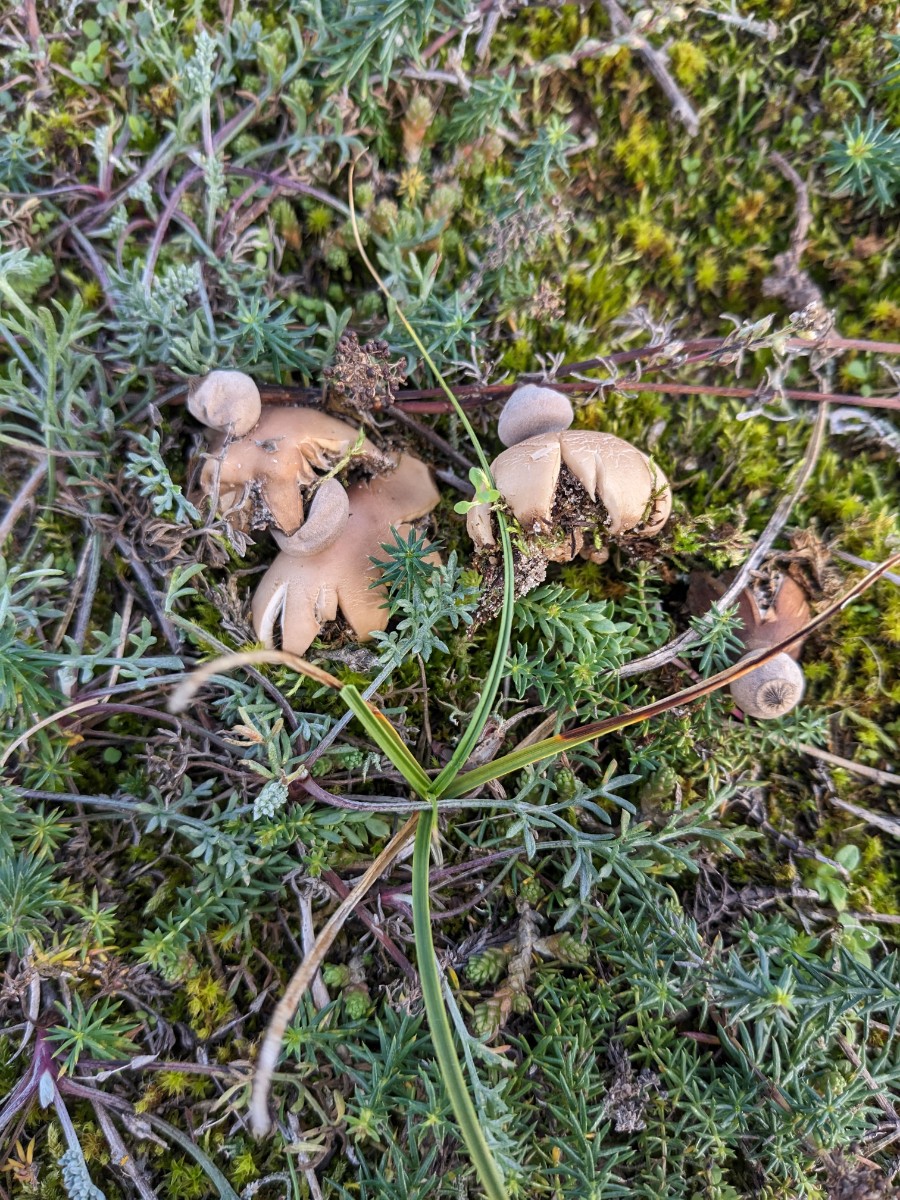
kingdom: Fungi
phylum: Basidiomycota
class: Agaricomycetes
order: Geastrales
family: Geastraceae
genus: Geastrum
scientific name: Geastrum striatum
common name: dværg-stjernebold
